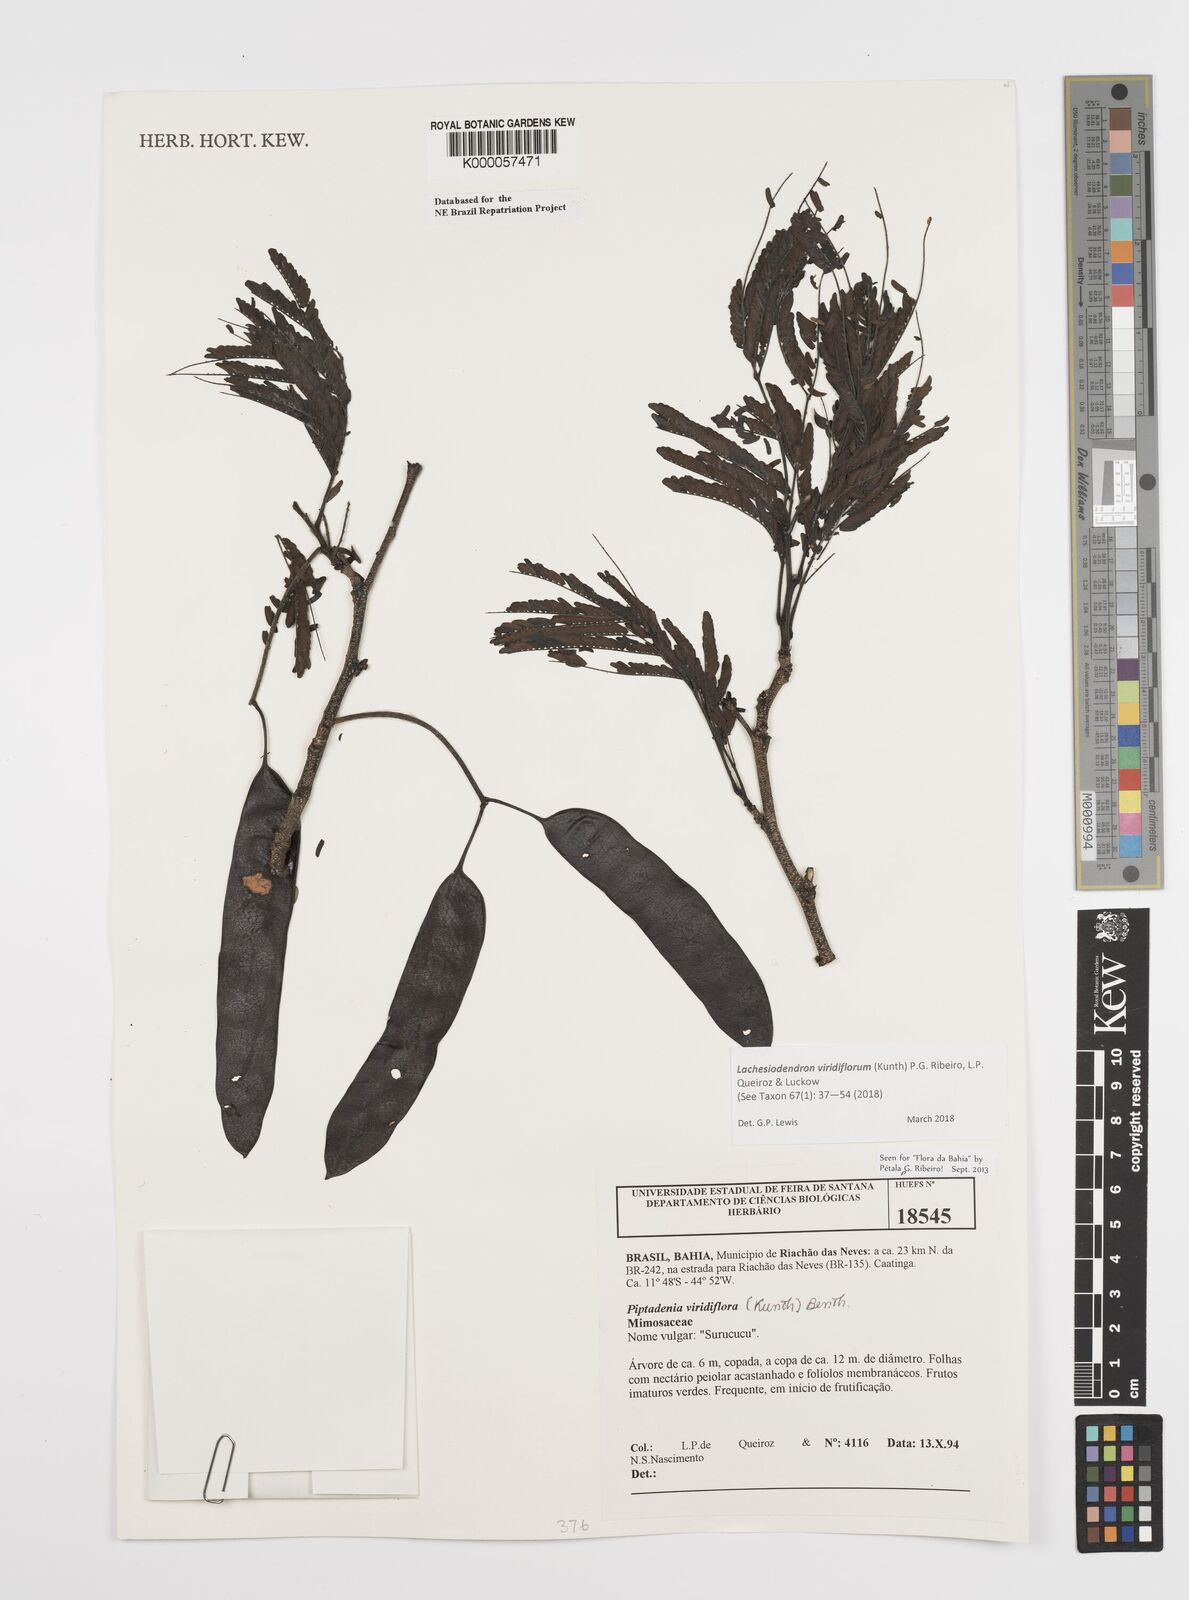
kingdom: Plantae
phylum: Tracheophyta
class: Magnoliopsida
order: Fabales
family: Fabaceae
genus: Lachesiodendron
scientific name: Lachesiodendron viridiflorum
